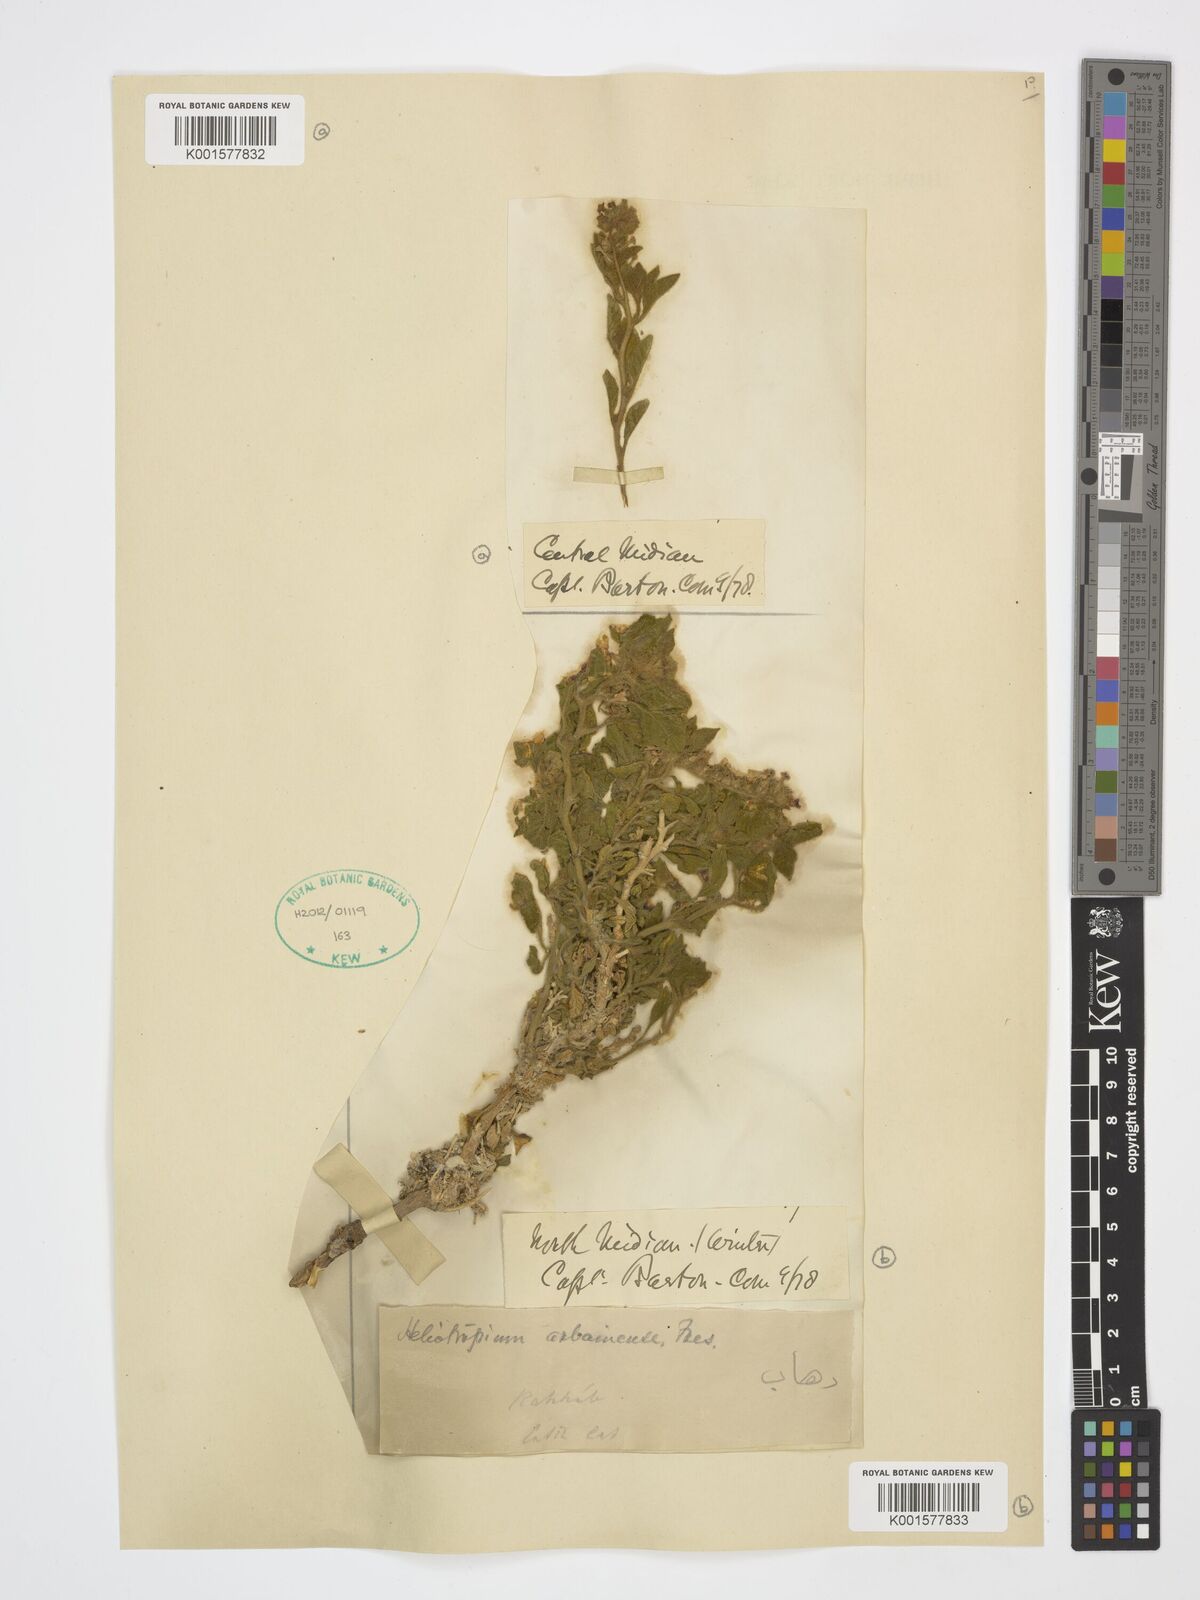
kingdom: Plantae
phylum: Tracheophyta
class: Magnoliopsida
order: Boraginales
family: Heliotropiaceae
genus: Heliotropium
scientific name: Heliotropium arbainense
